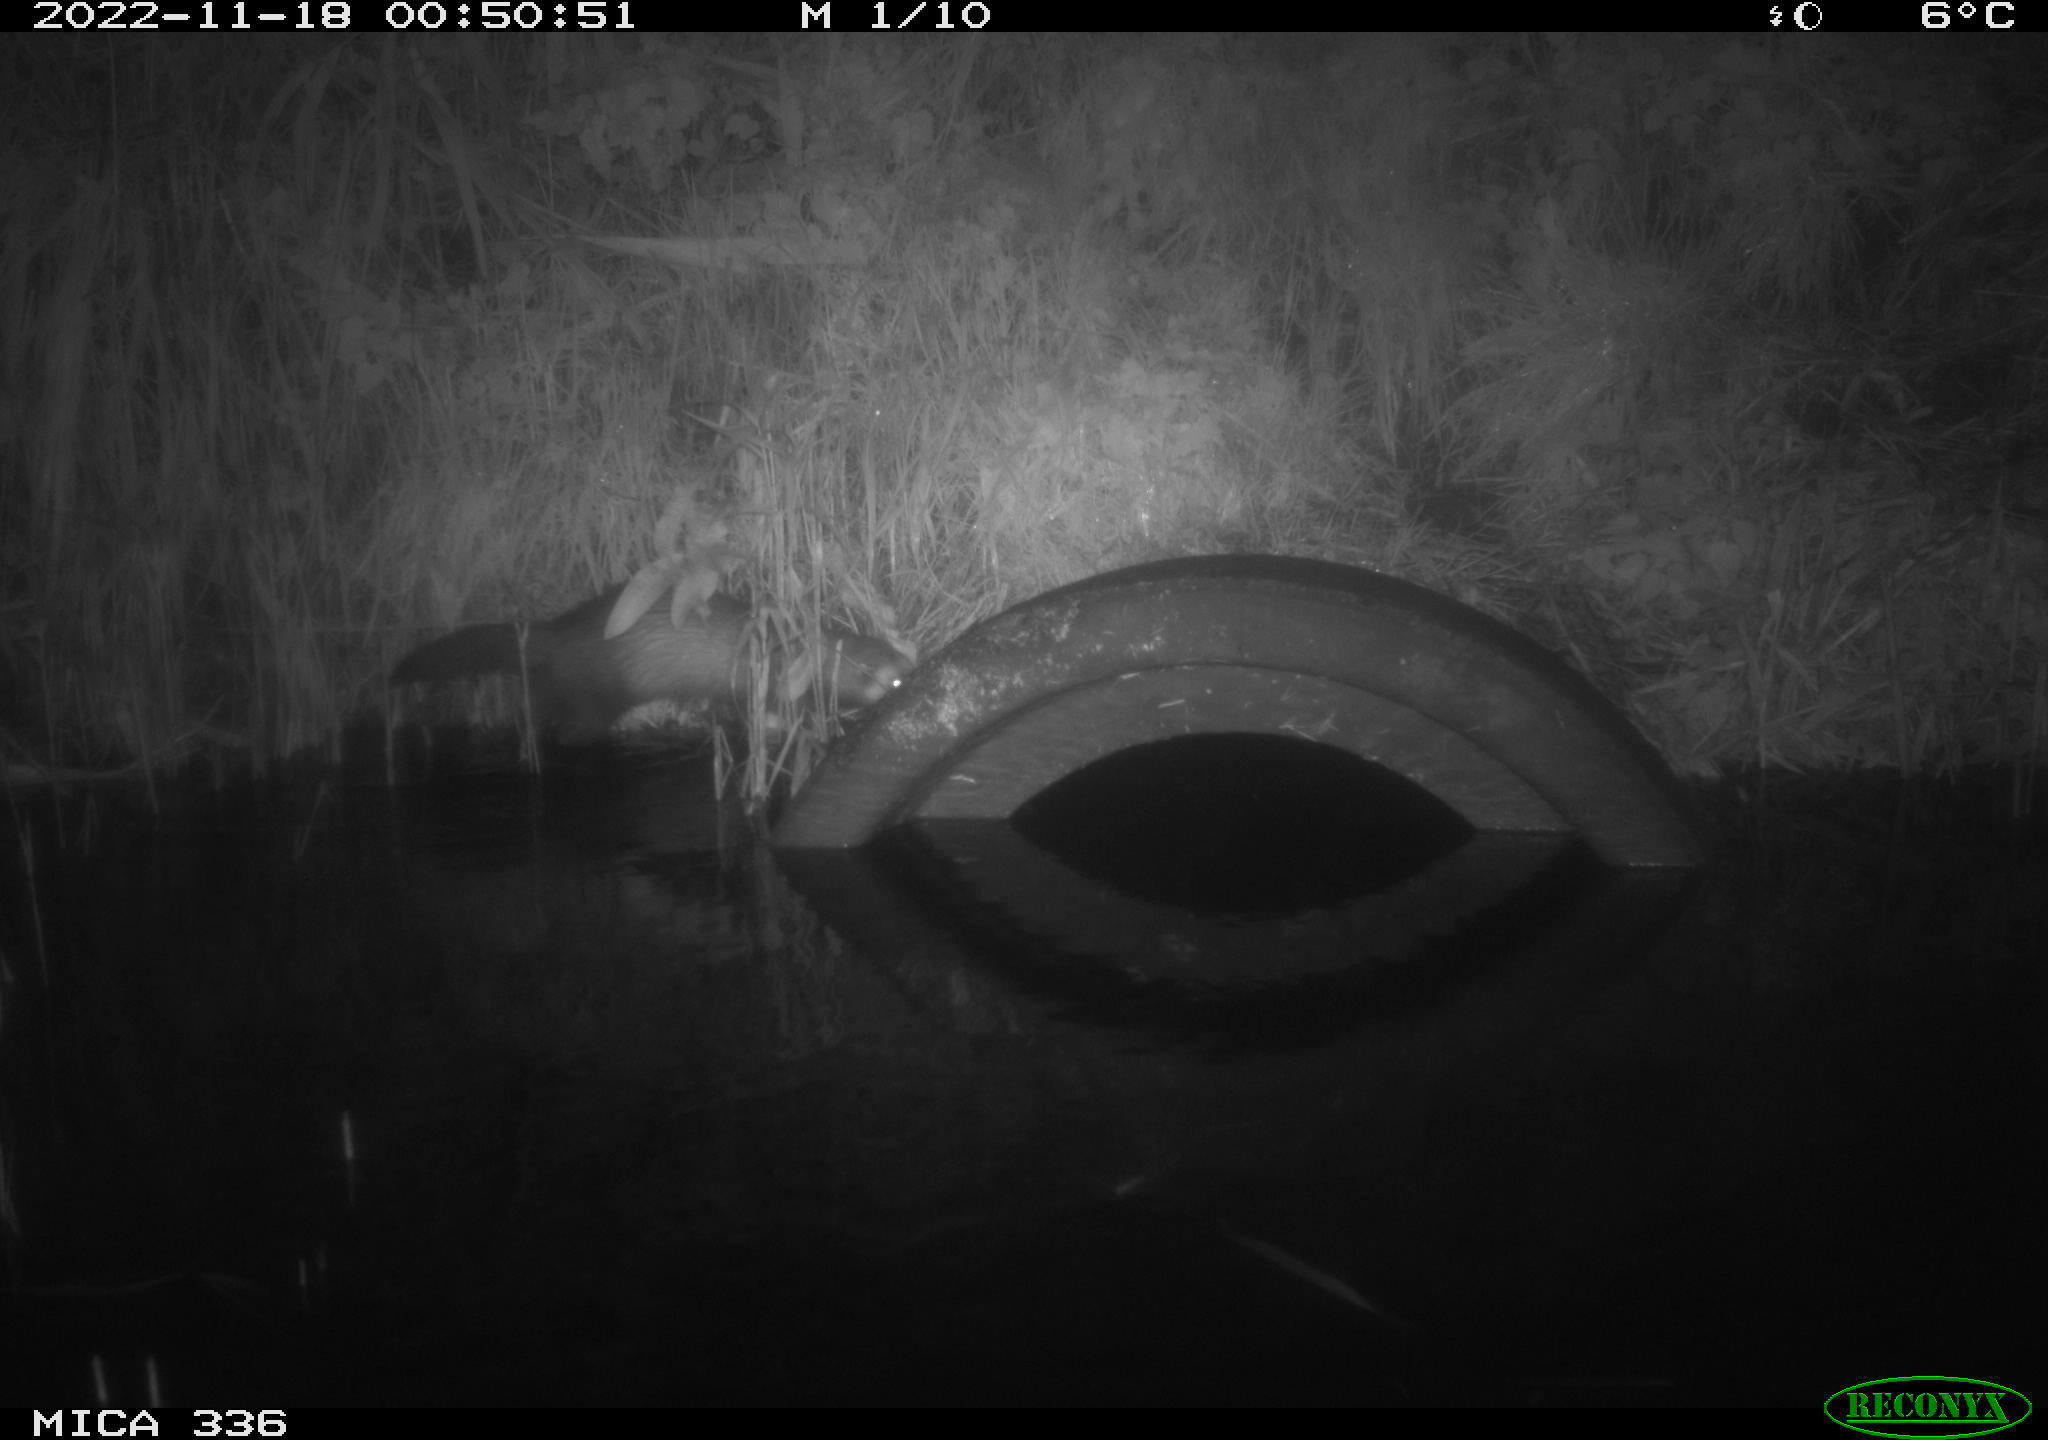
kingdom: Animalia
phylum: Chordata
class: Mammalia
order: Carnivora
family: Mustelidae
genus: Mustela
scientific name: Mustela putorius
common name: European polecat
